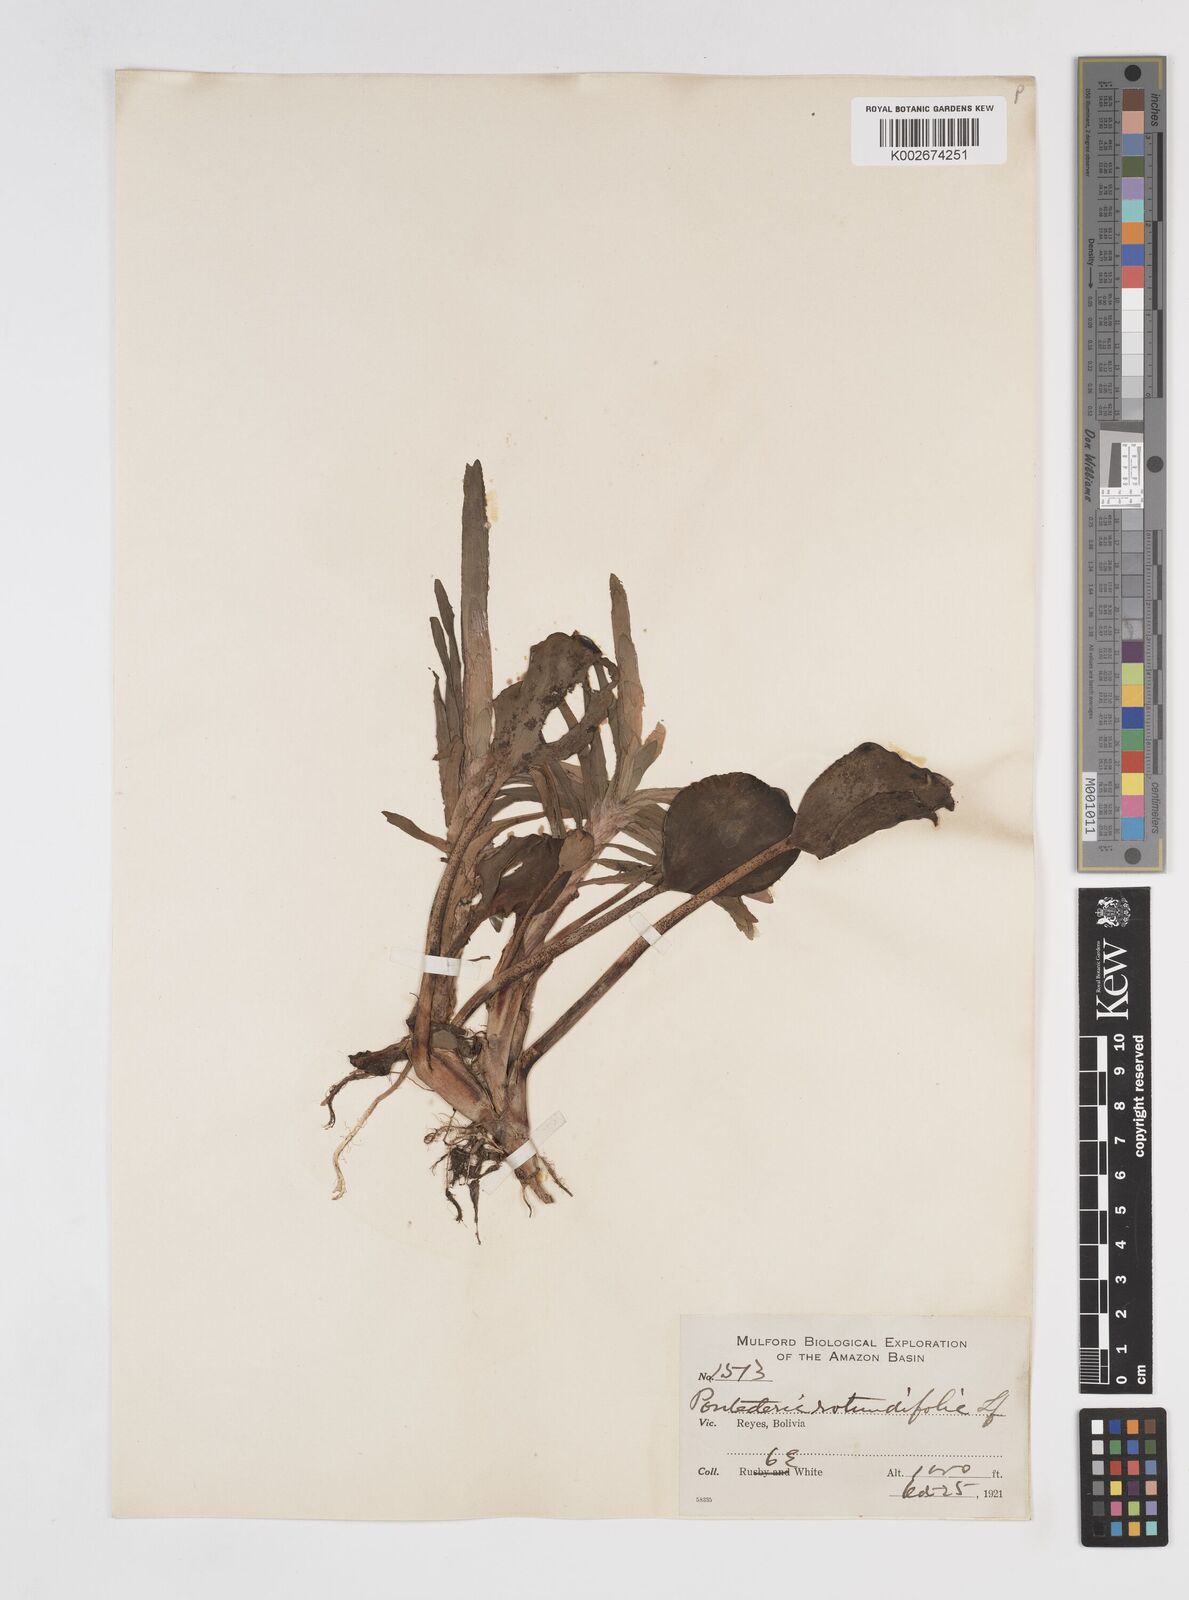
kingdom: Plantae
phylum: Tracheophyta
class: Liliopsida
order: Commelinales
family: Pontederiaceae
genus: Pontederia
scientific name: Pontederia rotundifolia
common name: Tropical pickerel-weed
